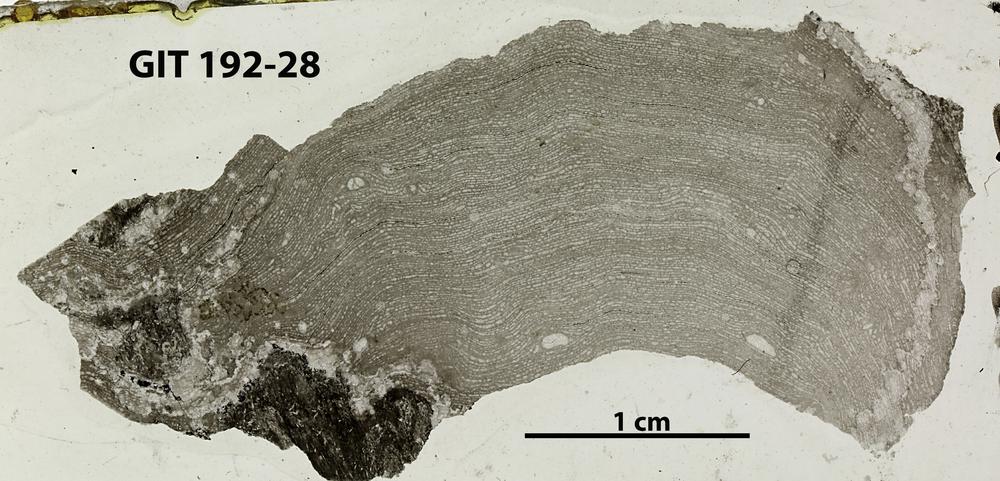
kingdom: Animalia
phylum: Porifera
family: Clathrodictyidae
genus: Clathrodictyon
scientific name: Clathrodictyon kudriavzevi
